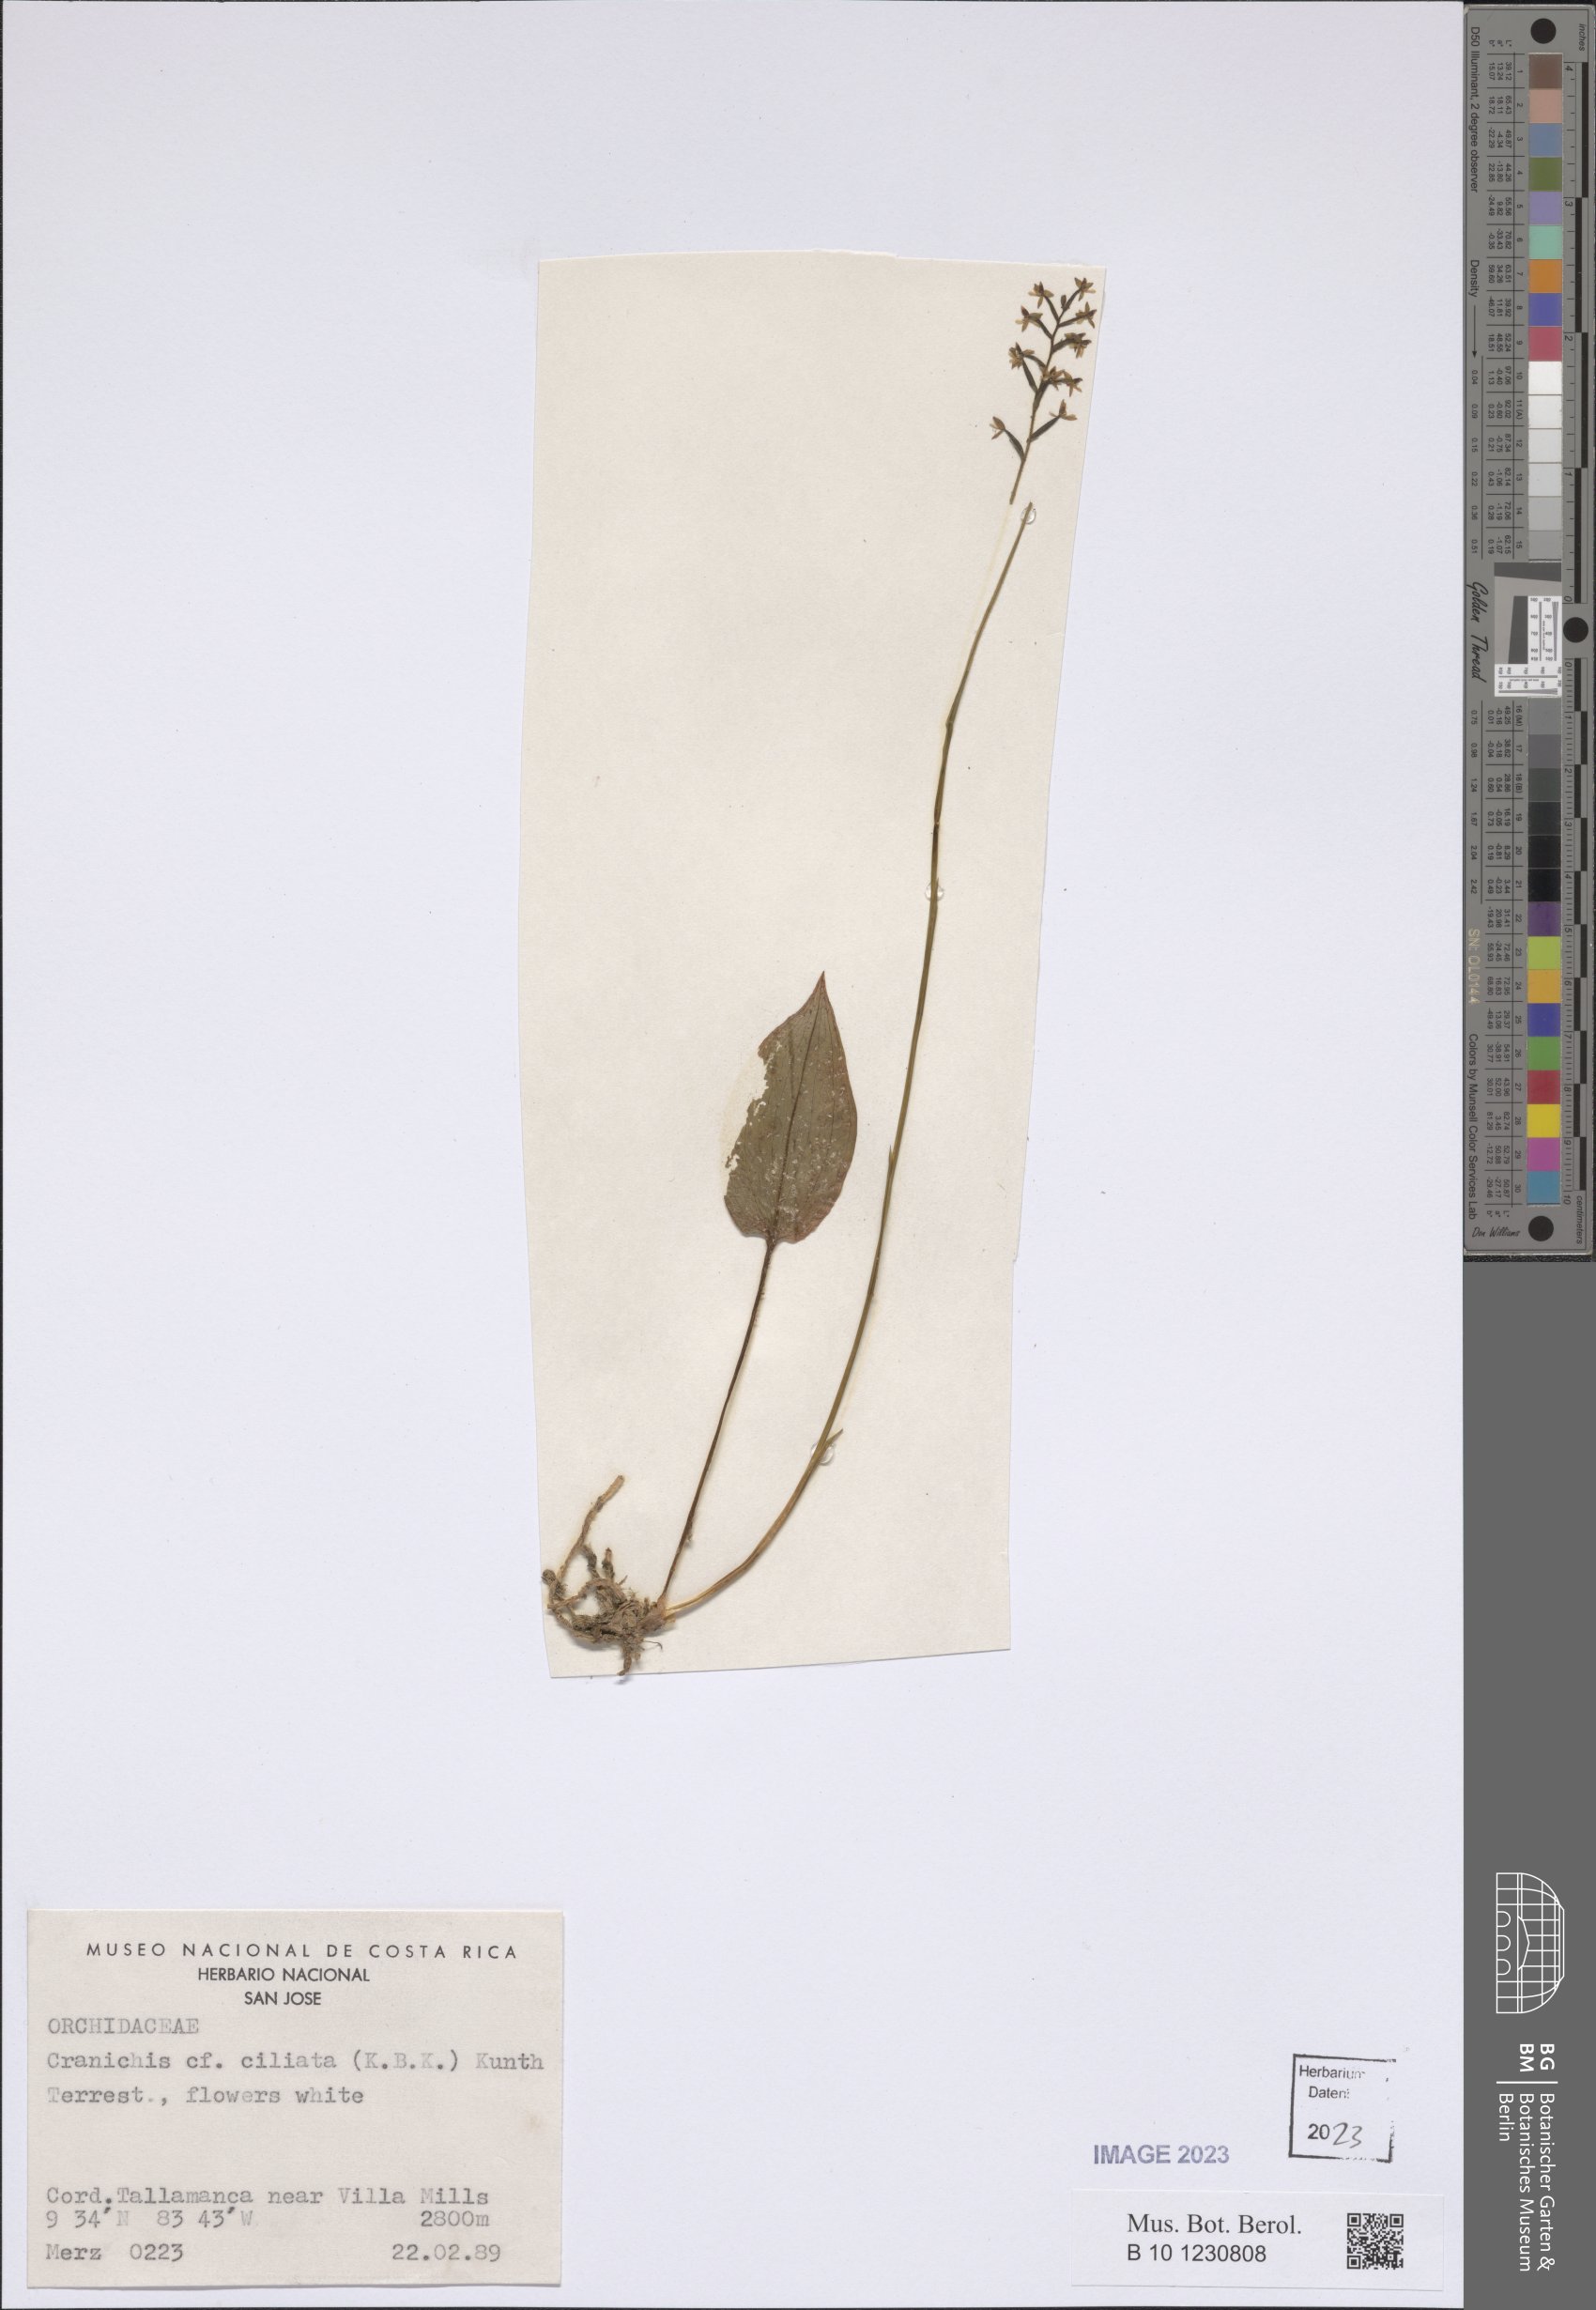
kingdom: Plantae
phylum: Tracheophyta
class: Liliopsida
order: Asparagales
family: Orchidaceae
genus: Cranichis
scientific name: Cranichis ciliata
